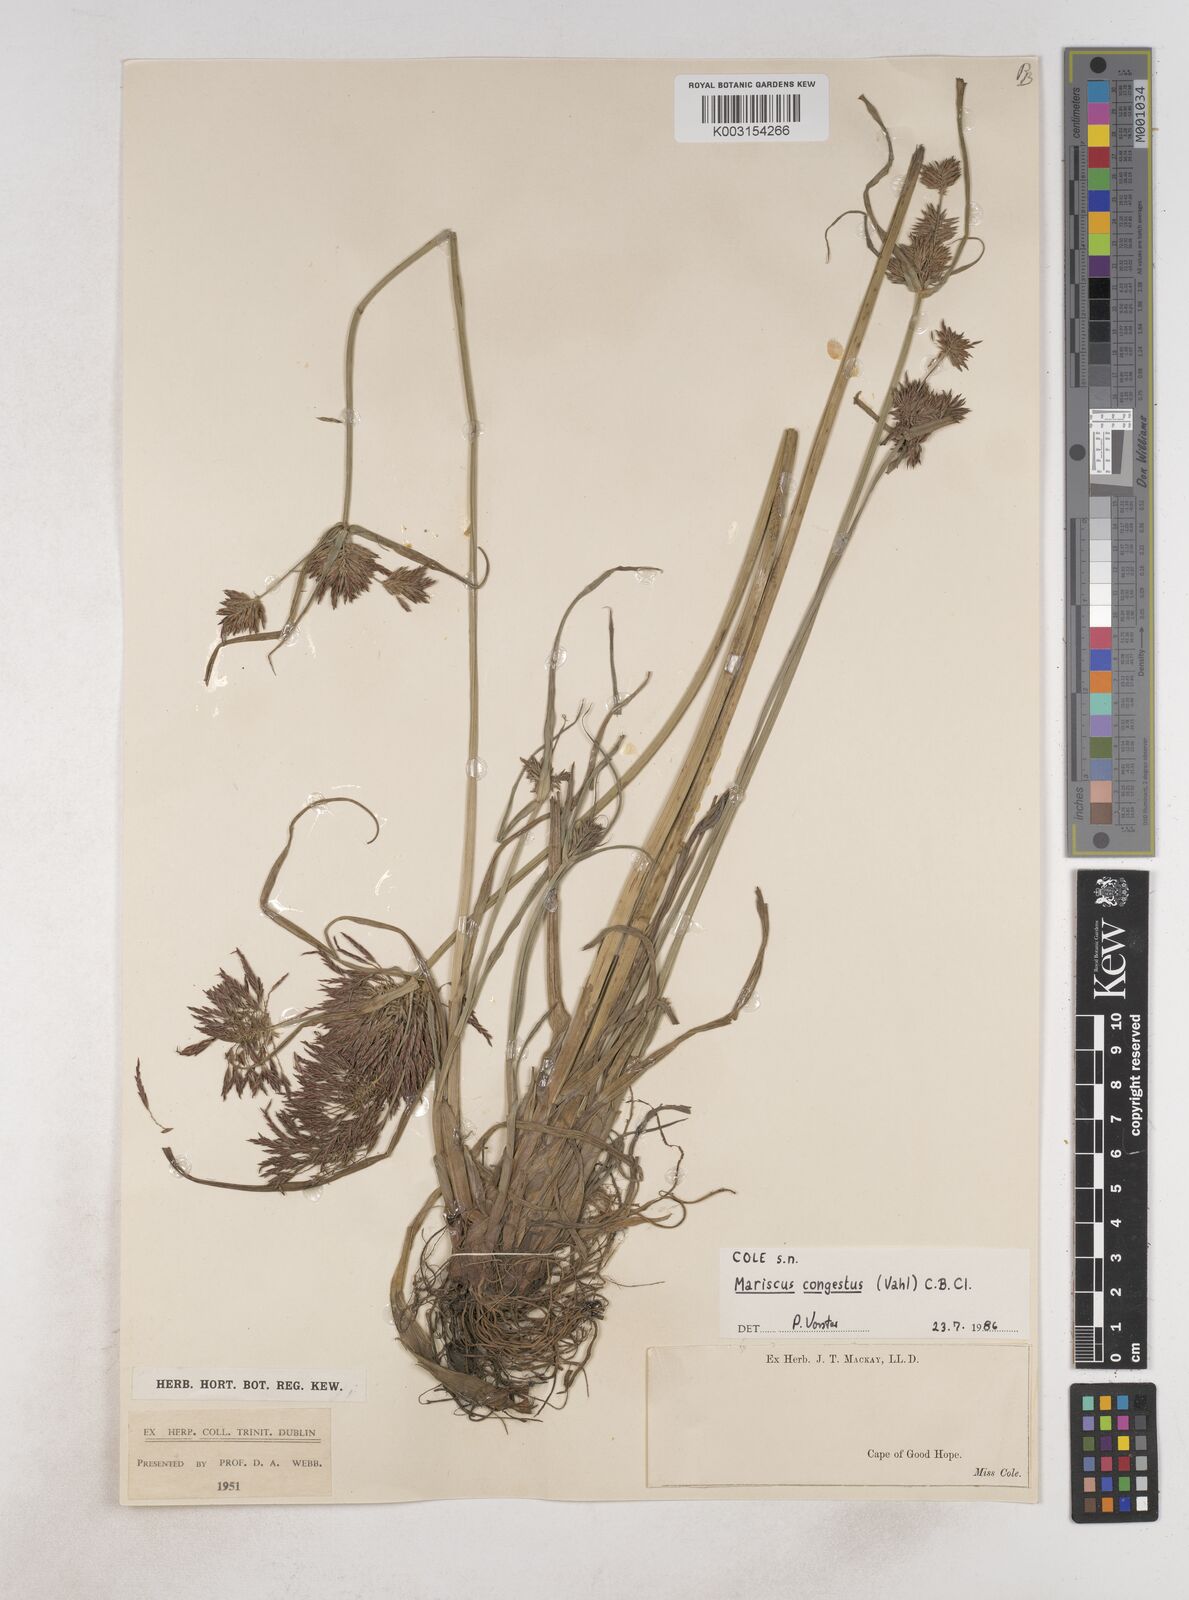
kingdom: Plantae
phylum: Tracheophyta
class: Liliopsida
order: Poales
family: Cyperaceae
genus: Cyperus
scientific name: Cyperus congestus
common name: Dense flat sedge
